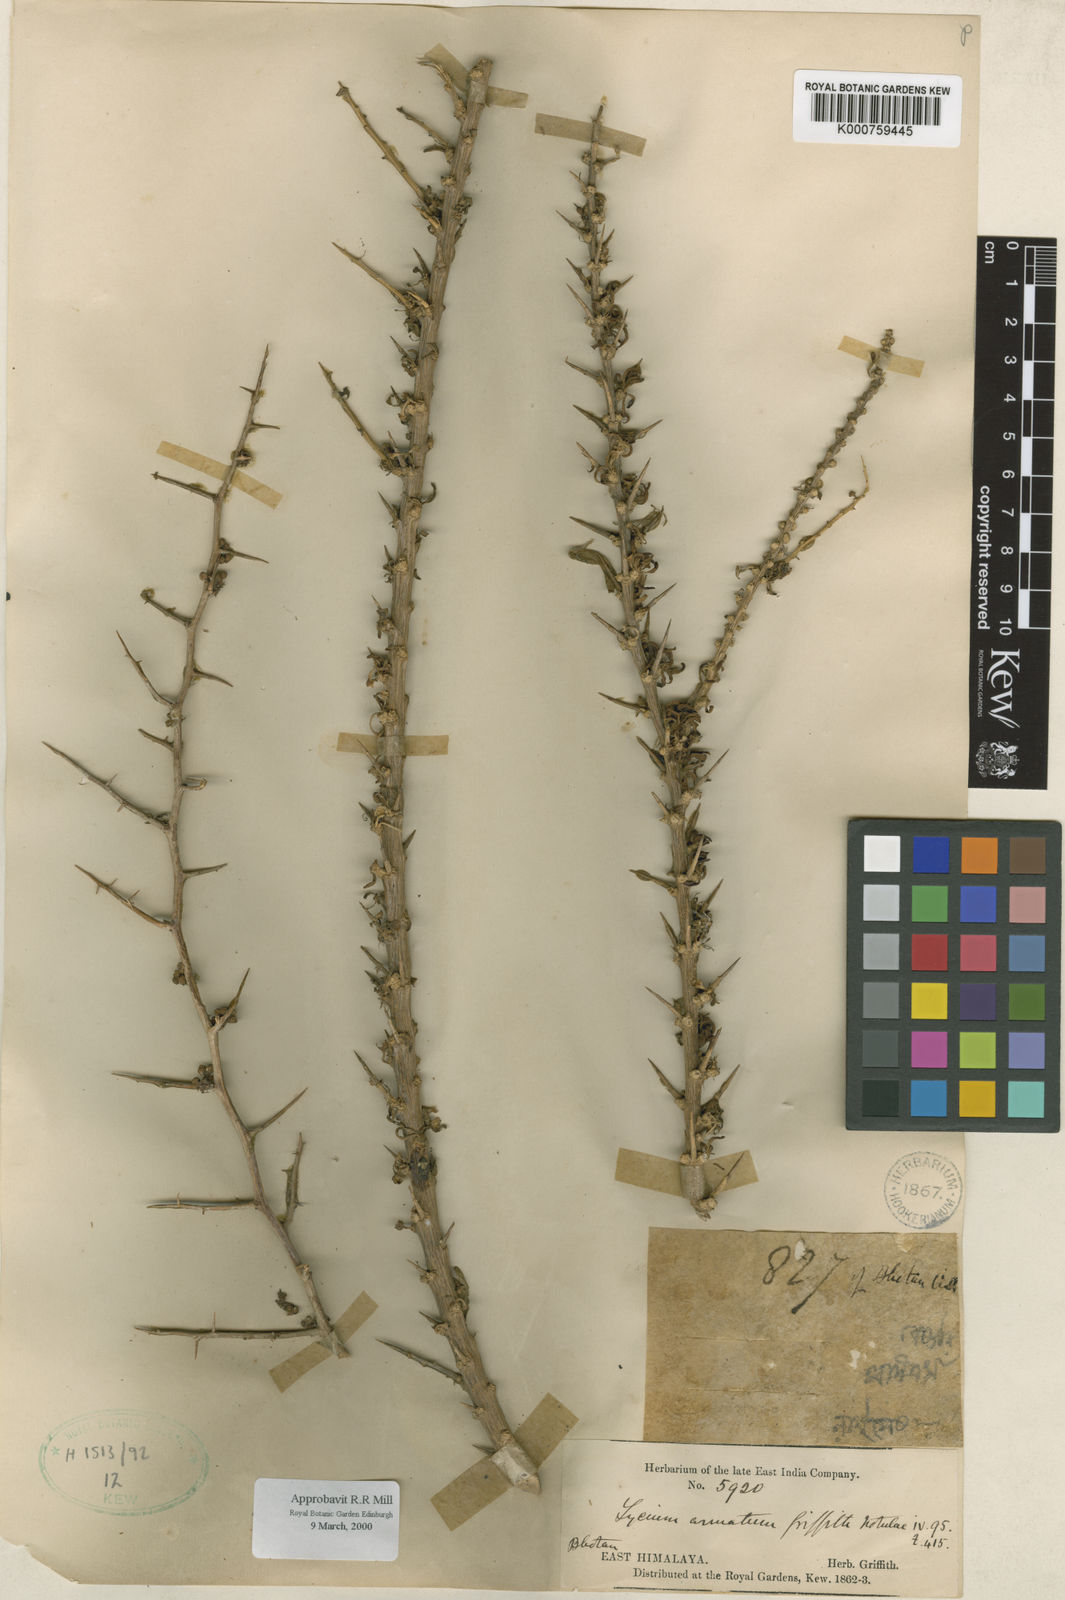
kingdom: Plantae
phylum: Tracheophyta
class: Magnoliopsida
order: Solanales
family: Solanaceae
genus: Lycium
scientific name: Lycium armatum
